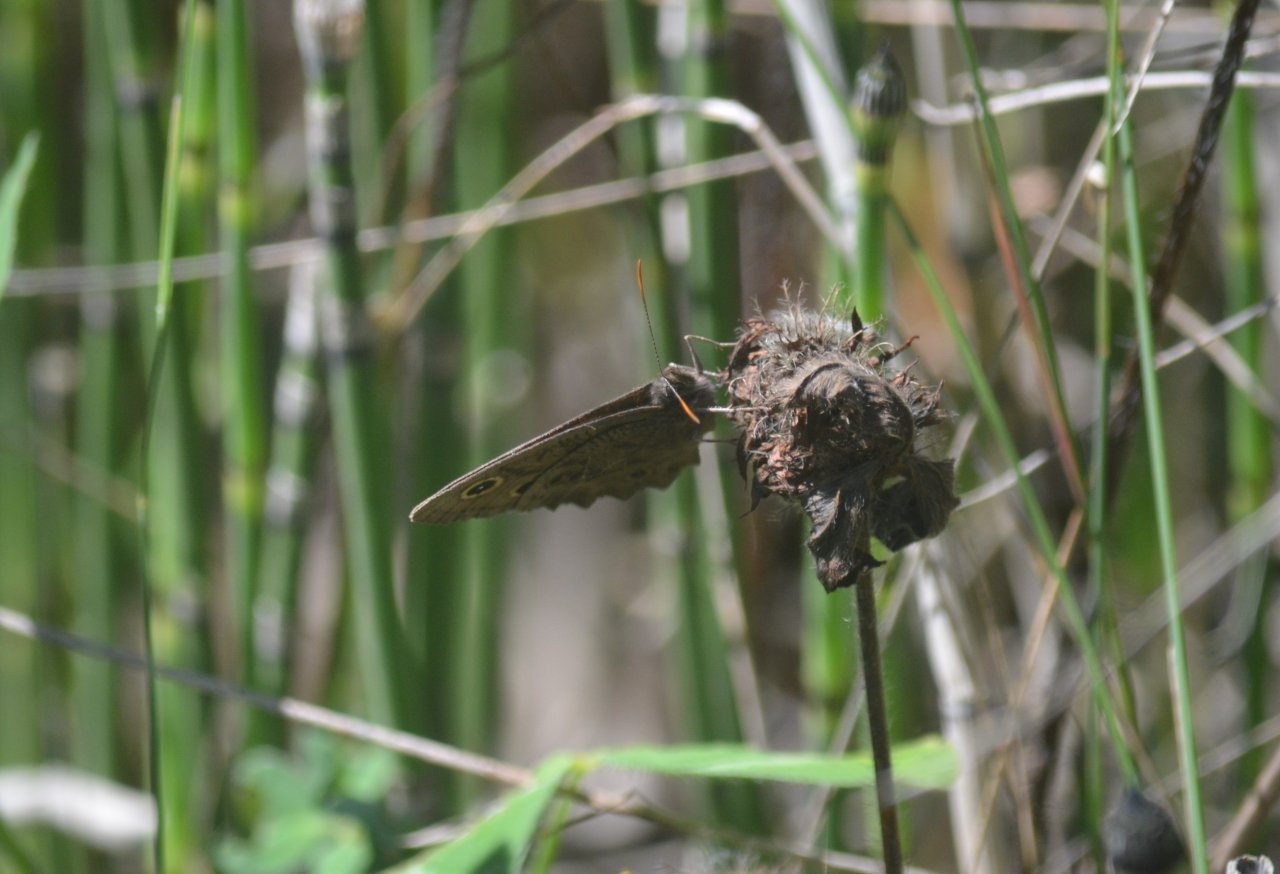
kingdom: Animalia
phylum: Arthropoda
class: Insecta
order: Lepidoptera
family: Nymphalidae
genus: Cercyonis
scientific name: Cercyonis pegala
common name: Common Wood-Nymph
